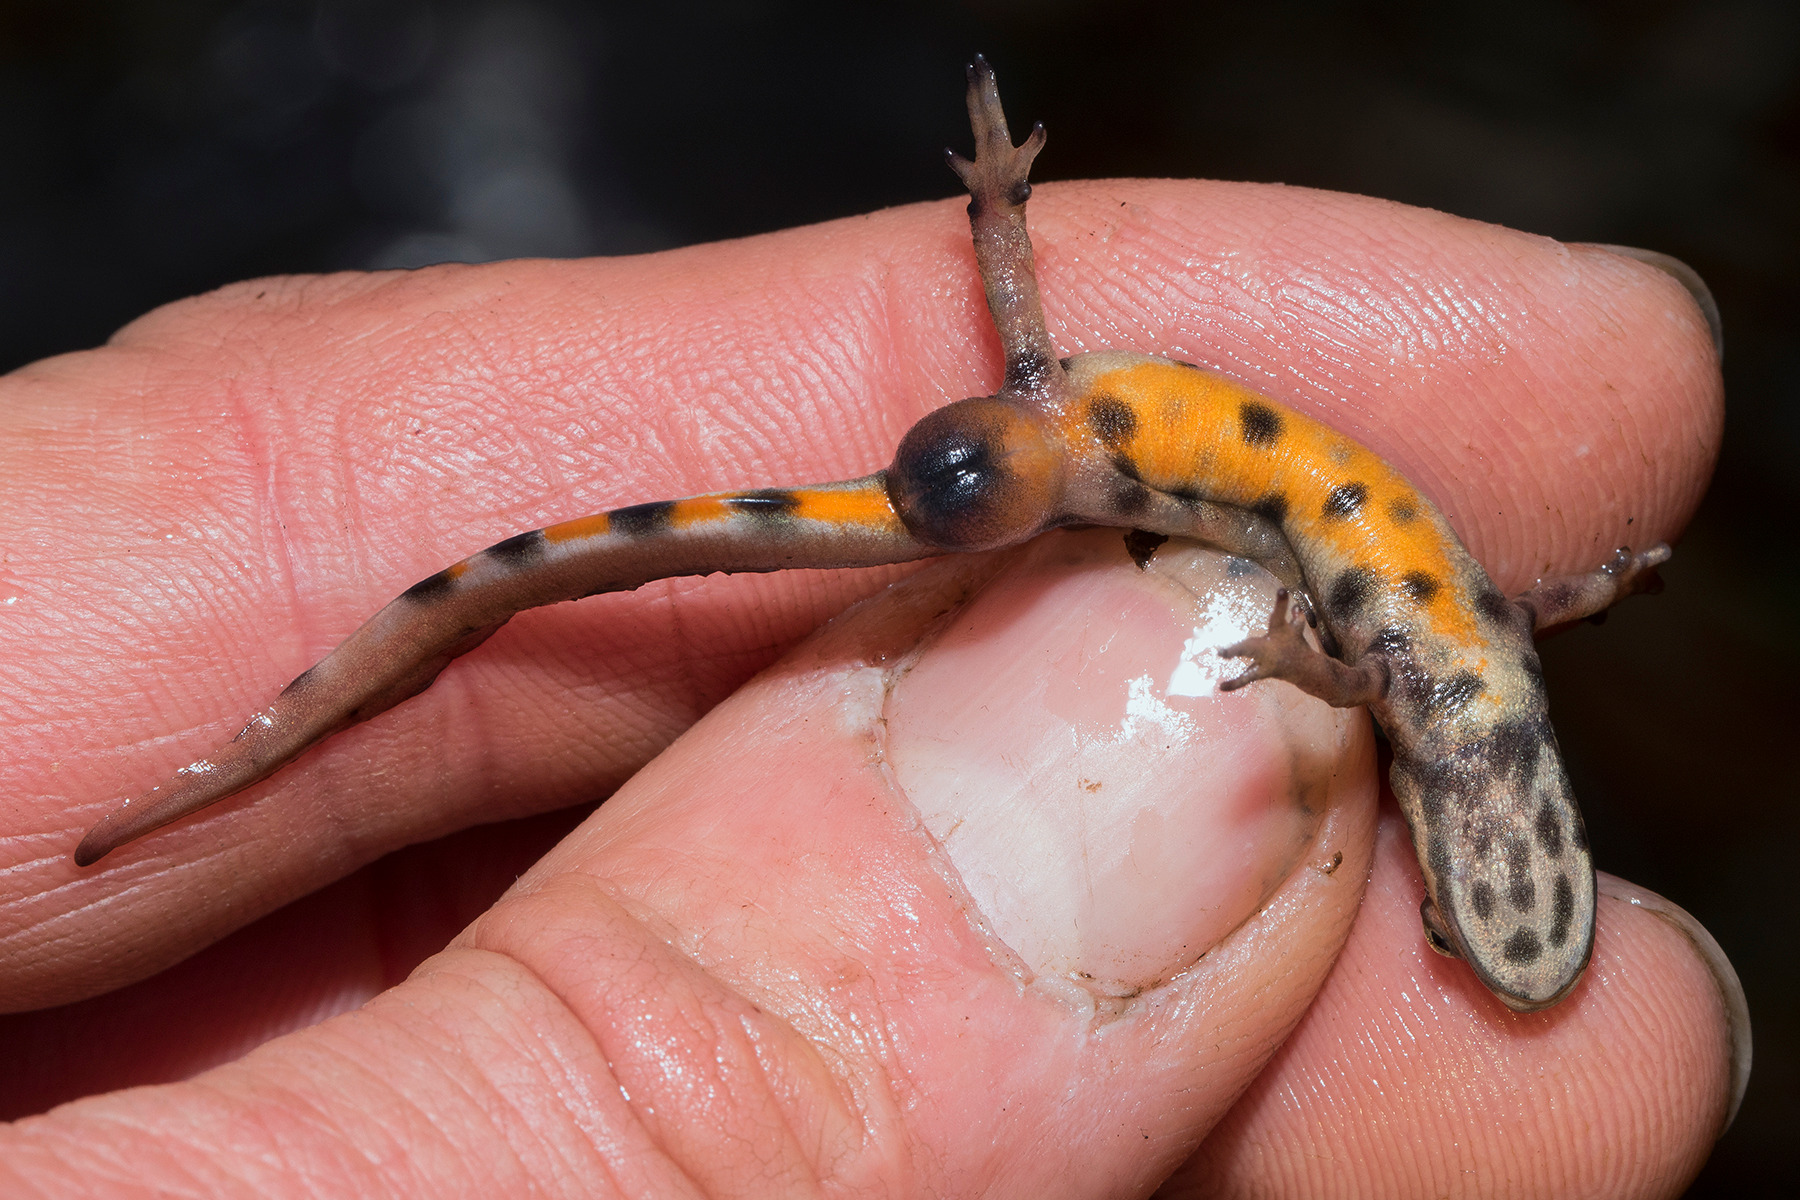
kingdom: Animalia
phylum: Chordata
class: Amphibia
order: Caudata
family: Salamandridae
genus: Lissotriton
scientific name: Lissotriton vulgaris
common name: Lille vandsalamander
